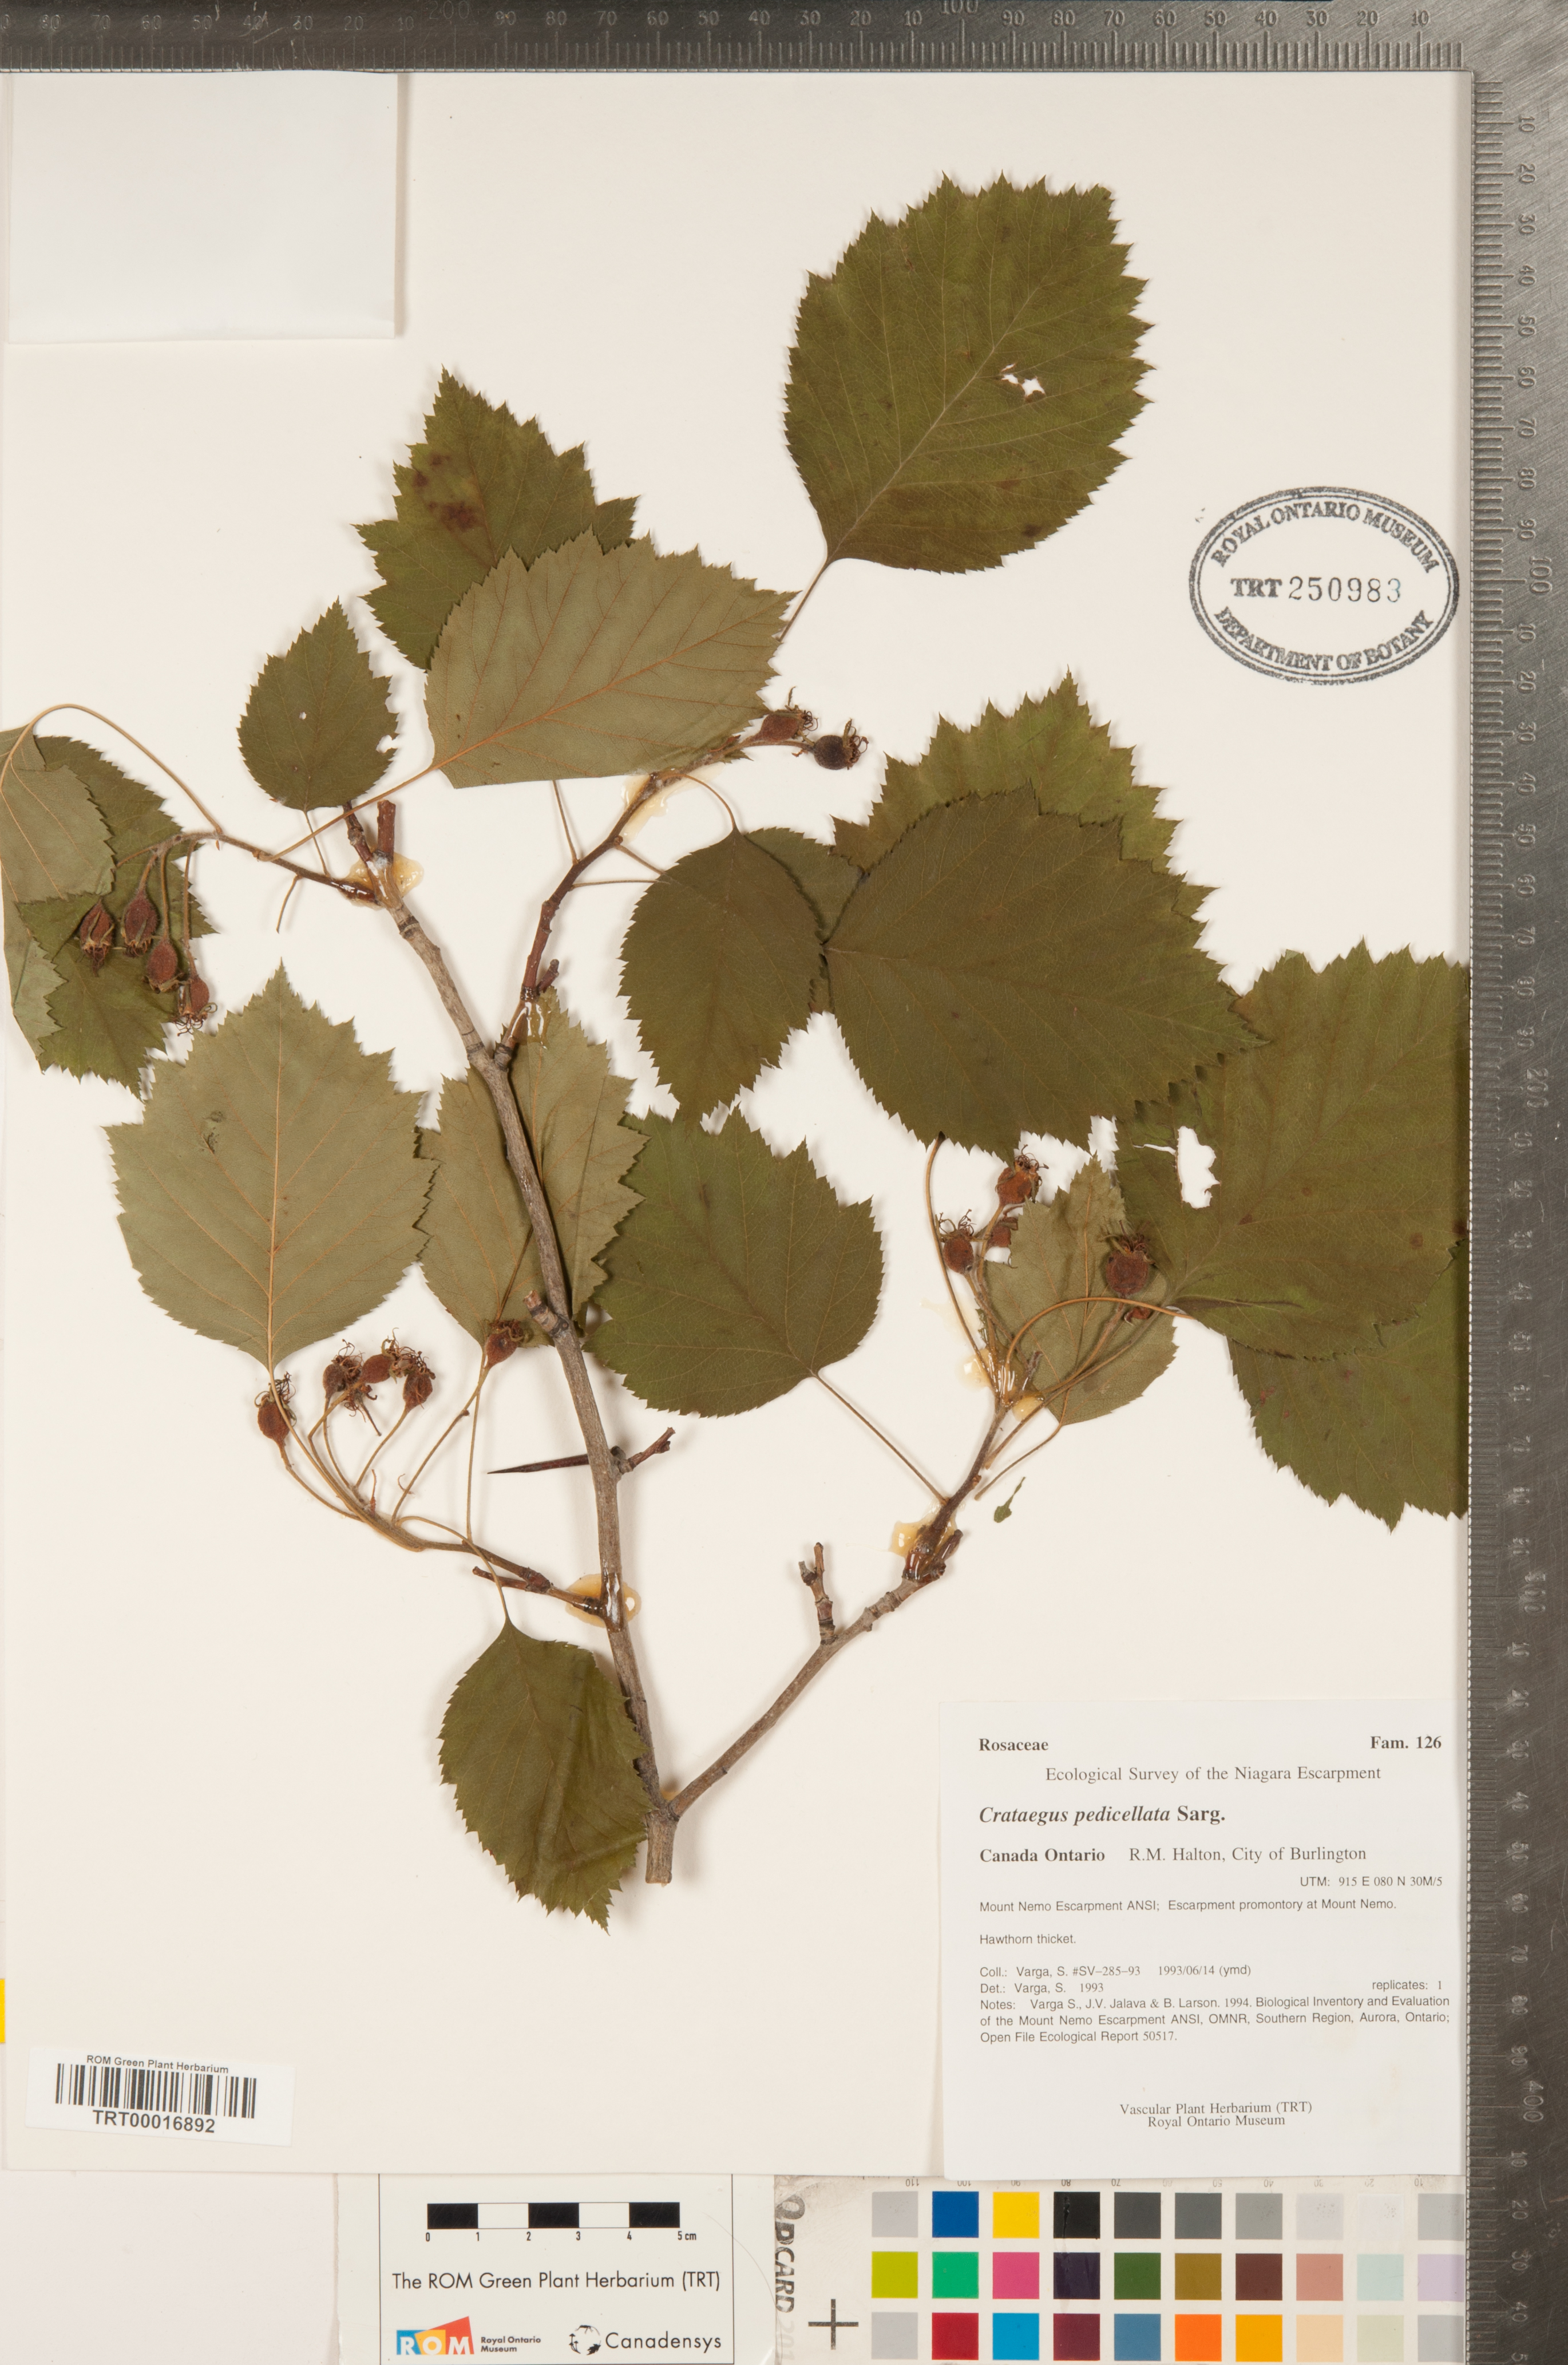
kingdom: Plantae
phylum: Tracheophyta
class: Magnoliopsida
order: Rosales
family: Rosaceae
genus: Crataegus
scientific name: Crataegus coccinea
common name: Scarlet hawthorn
